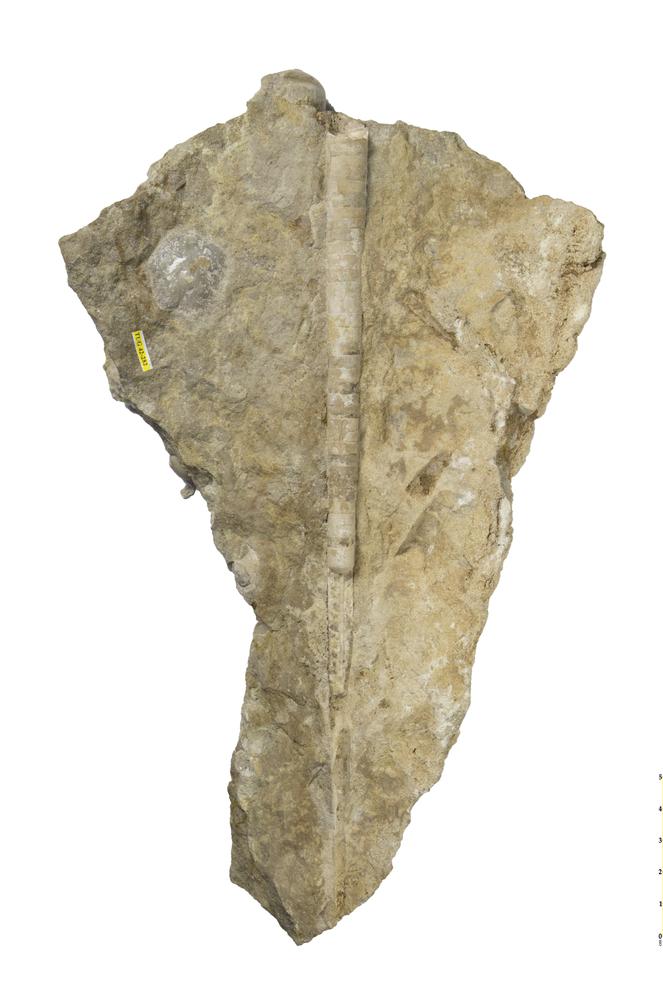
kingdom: Animalia
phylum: Mollusca
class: Cephalopoda
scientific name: Cephalopoda
